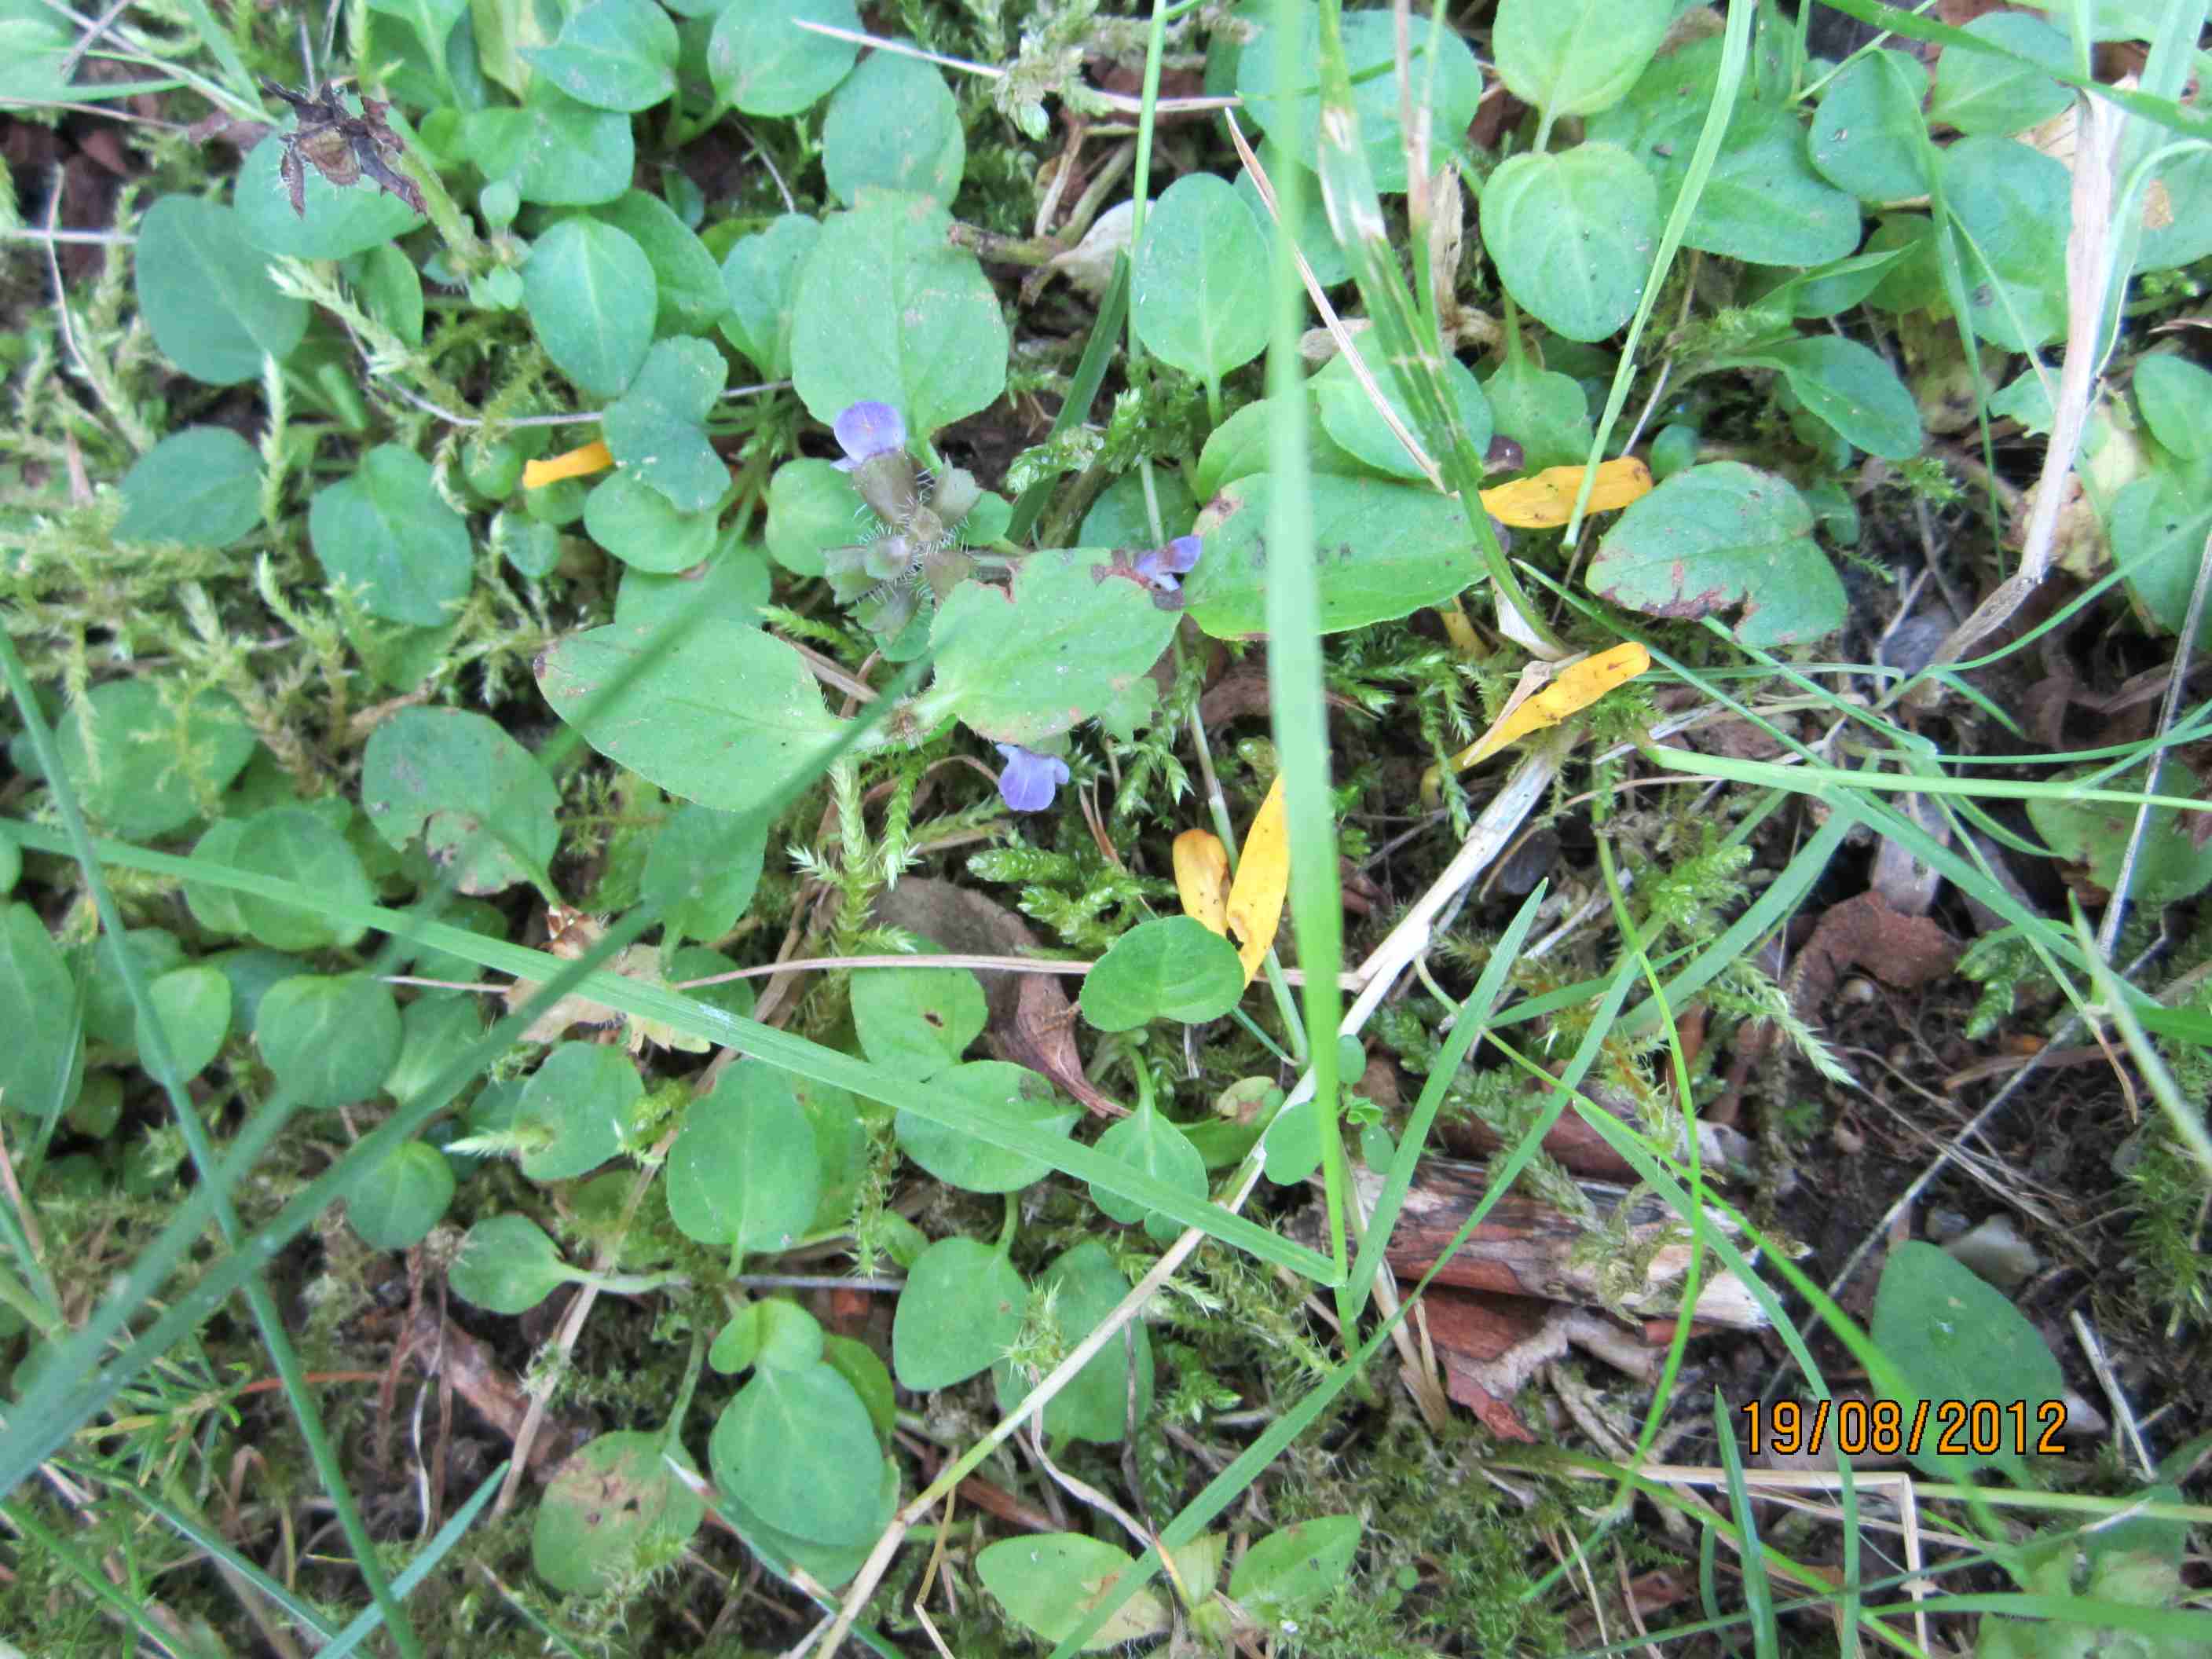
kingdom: Fungi
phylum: Basidiomycota
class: Agaricomycetes
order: Agaricales
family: Clavariaceae
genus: Clavulinopsis
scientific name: Clavulinopsis laeticolor
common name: flamme-køllesvamp
